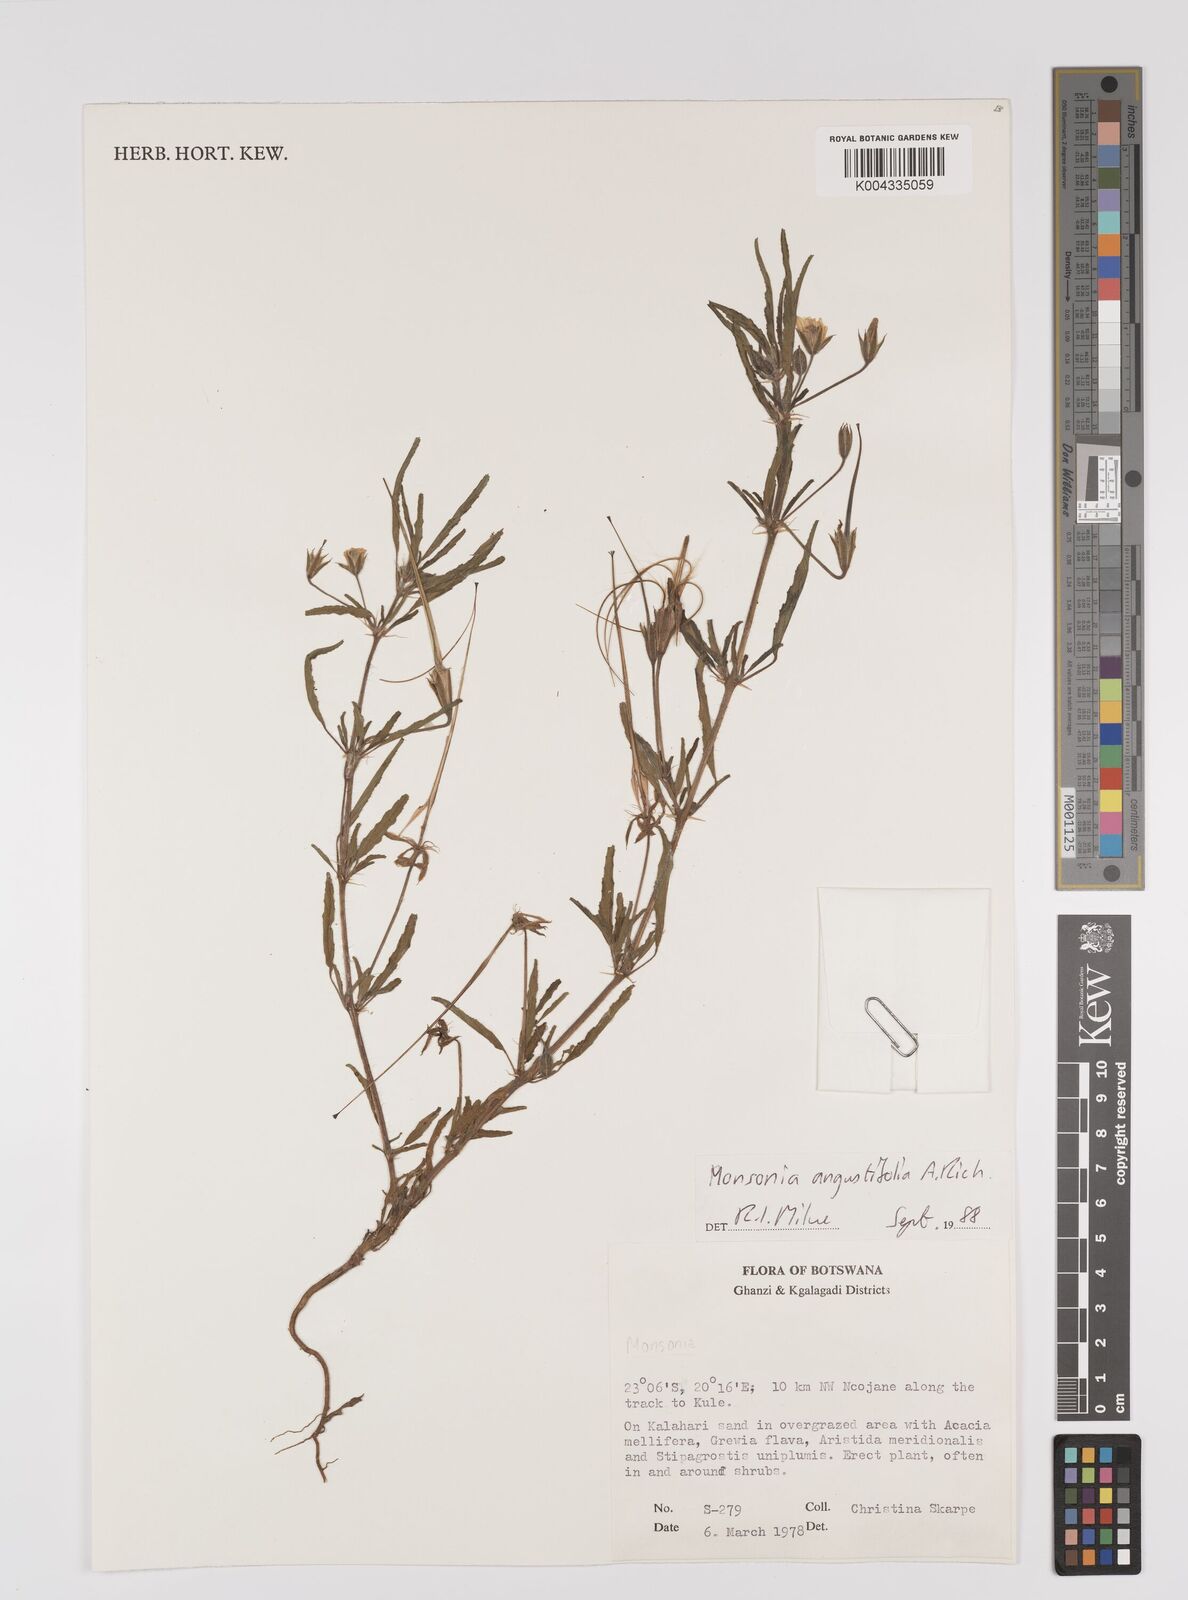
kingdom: Plantae
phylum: Tracheophyta
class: Magnoliopsida
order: Geraniales
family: Geraniaceae
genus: Monsonia
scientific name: Monsonia angustifolia
